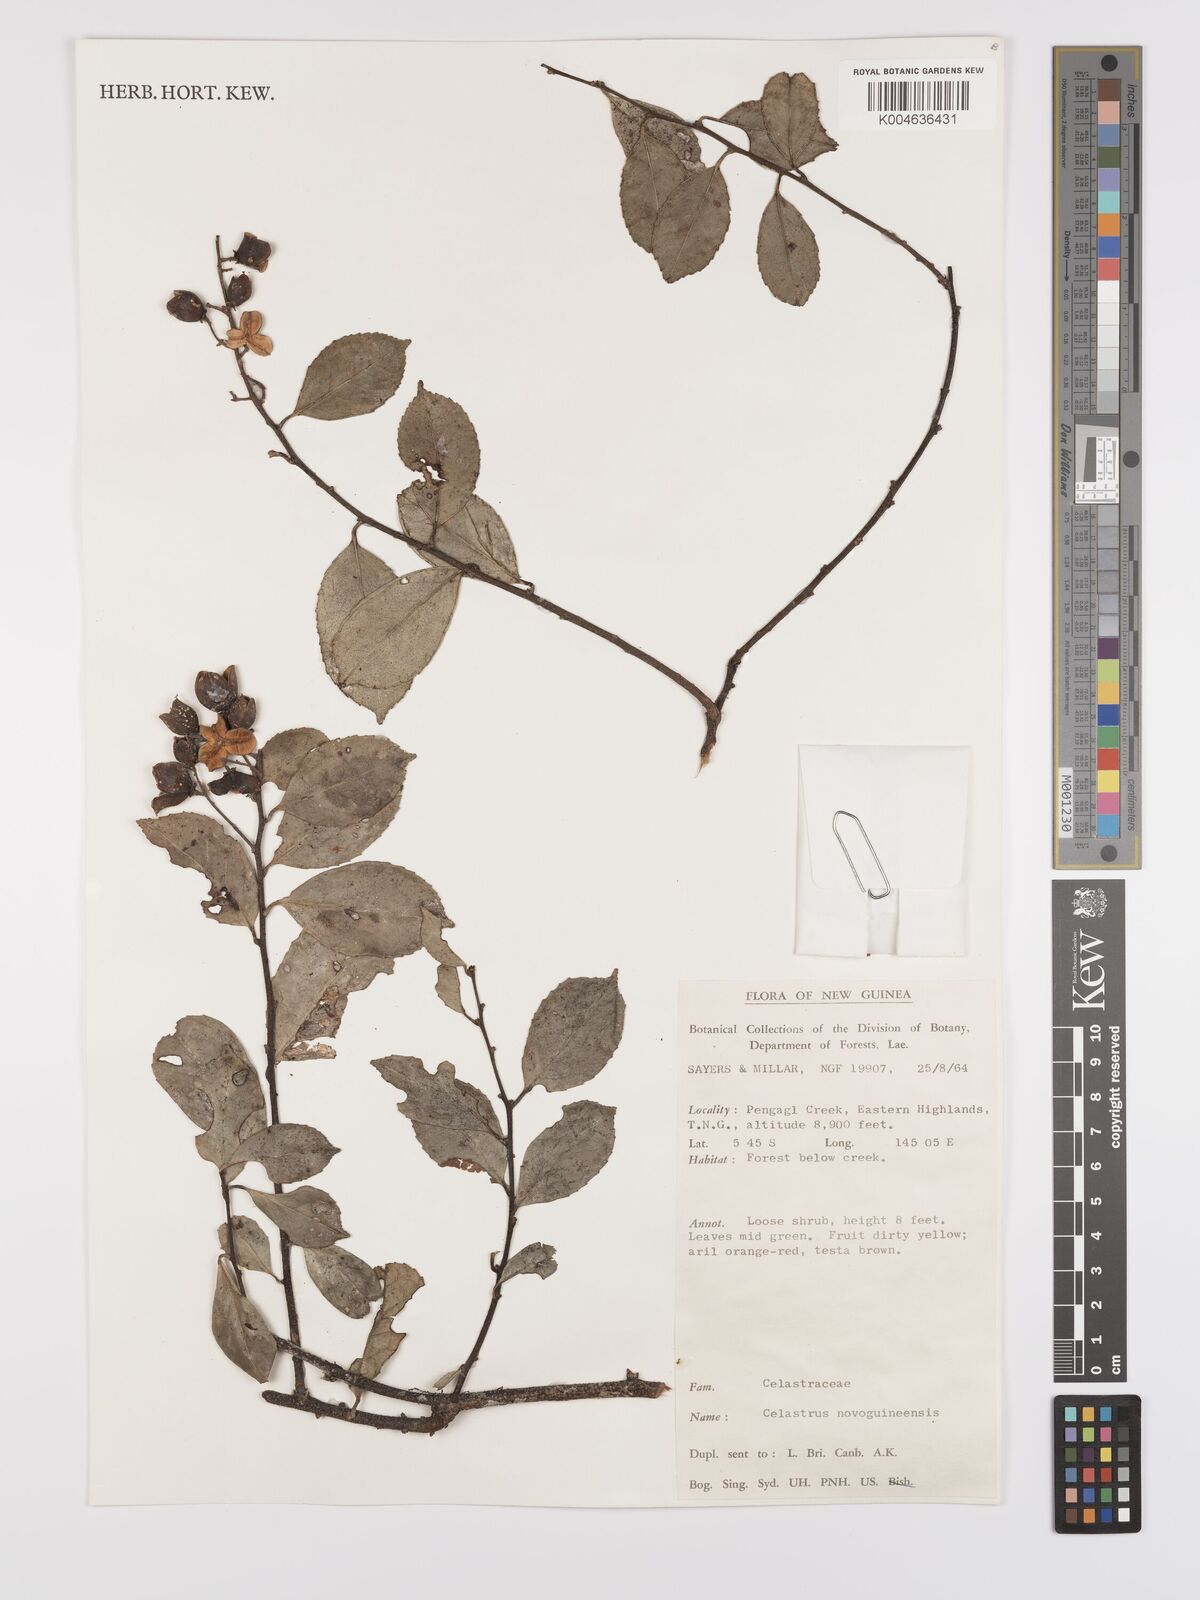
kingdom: Plantae
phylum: Tracheophyta
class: Magnoliopsida
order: Celastrales
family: Celastraceae
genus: Celastrus
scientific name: Celastrus novoguineensis
